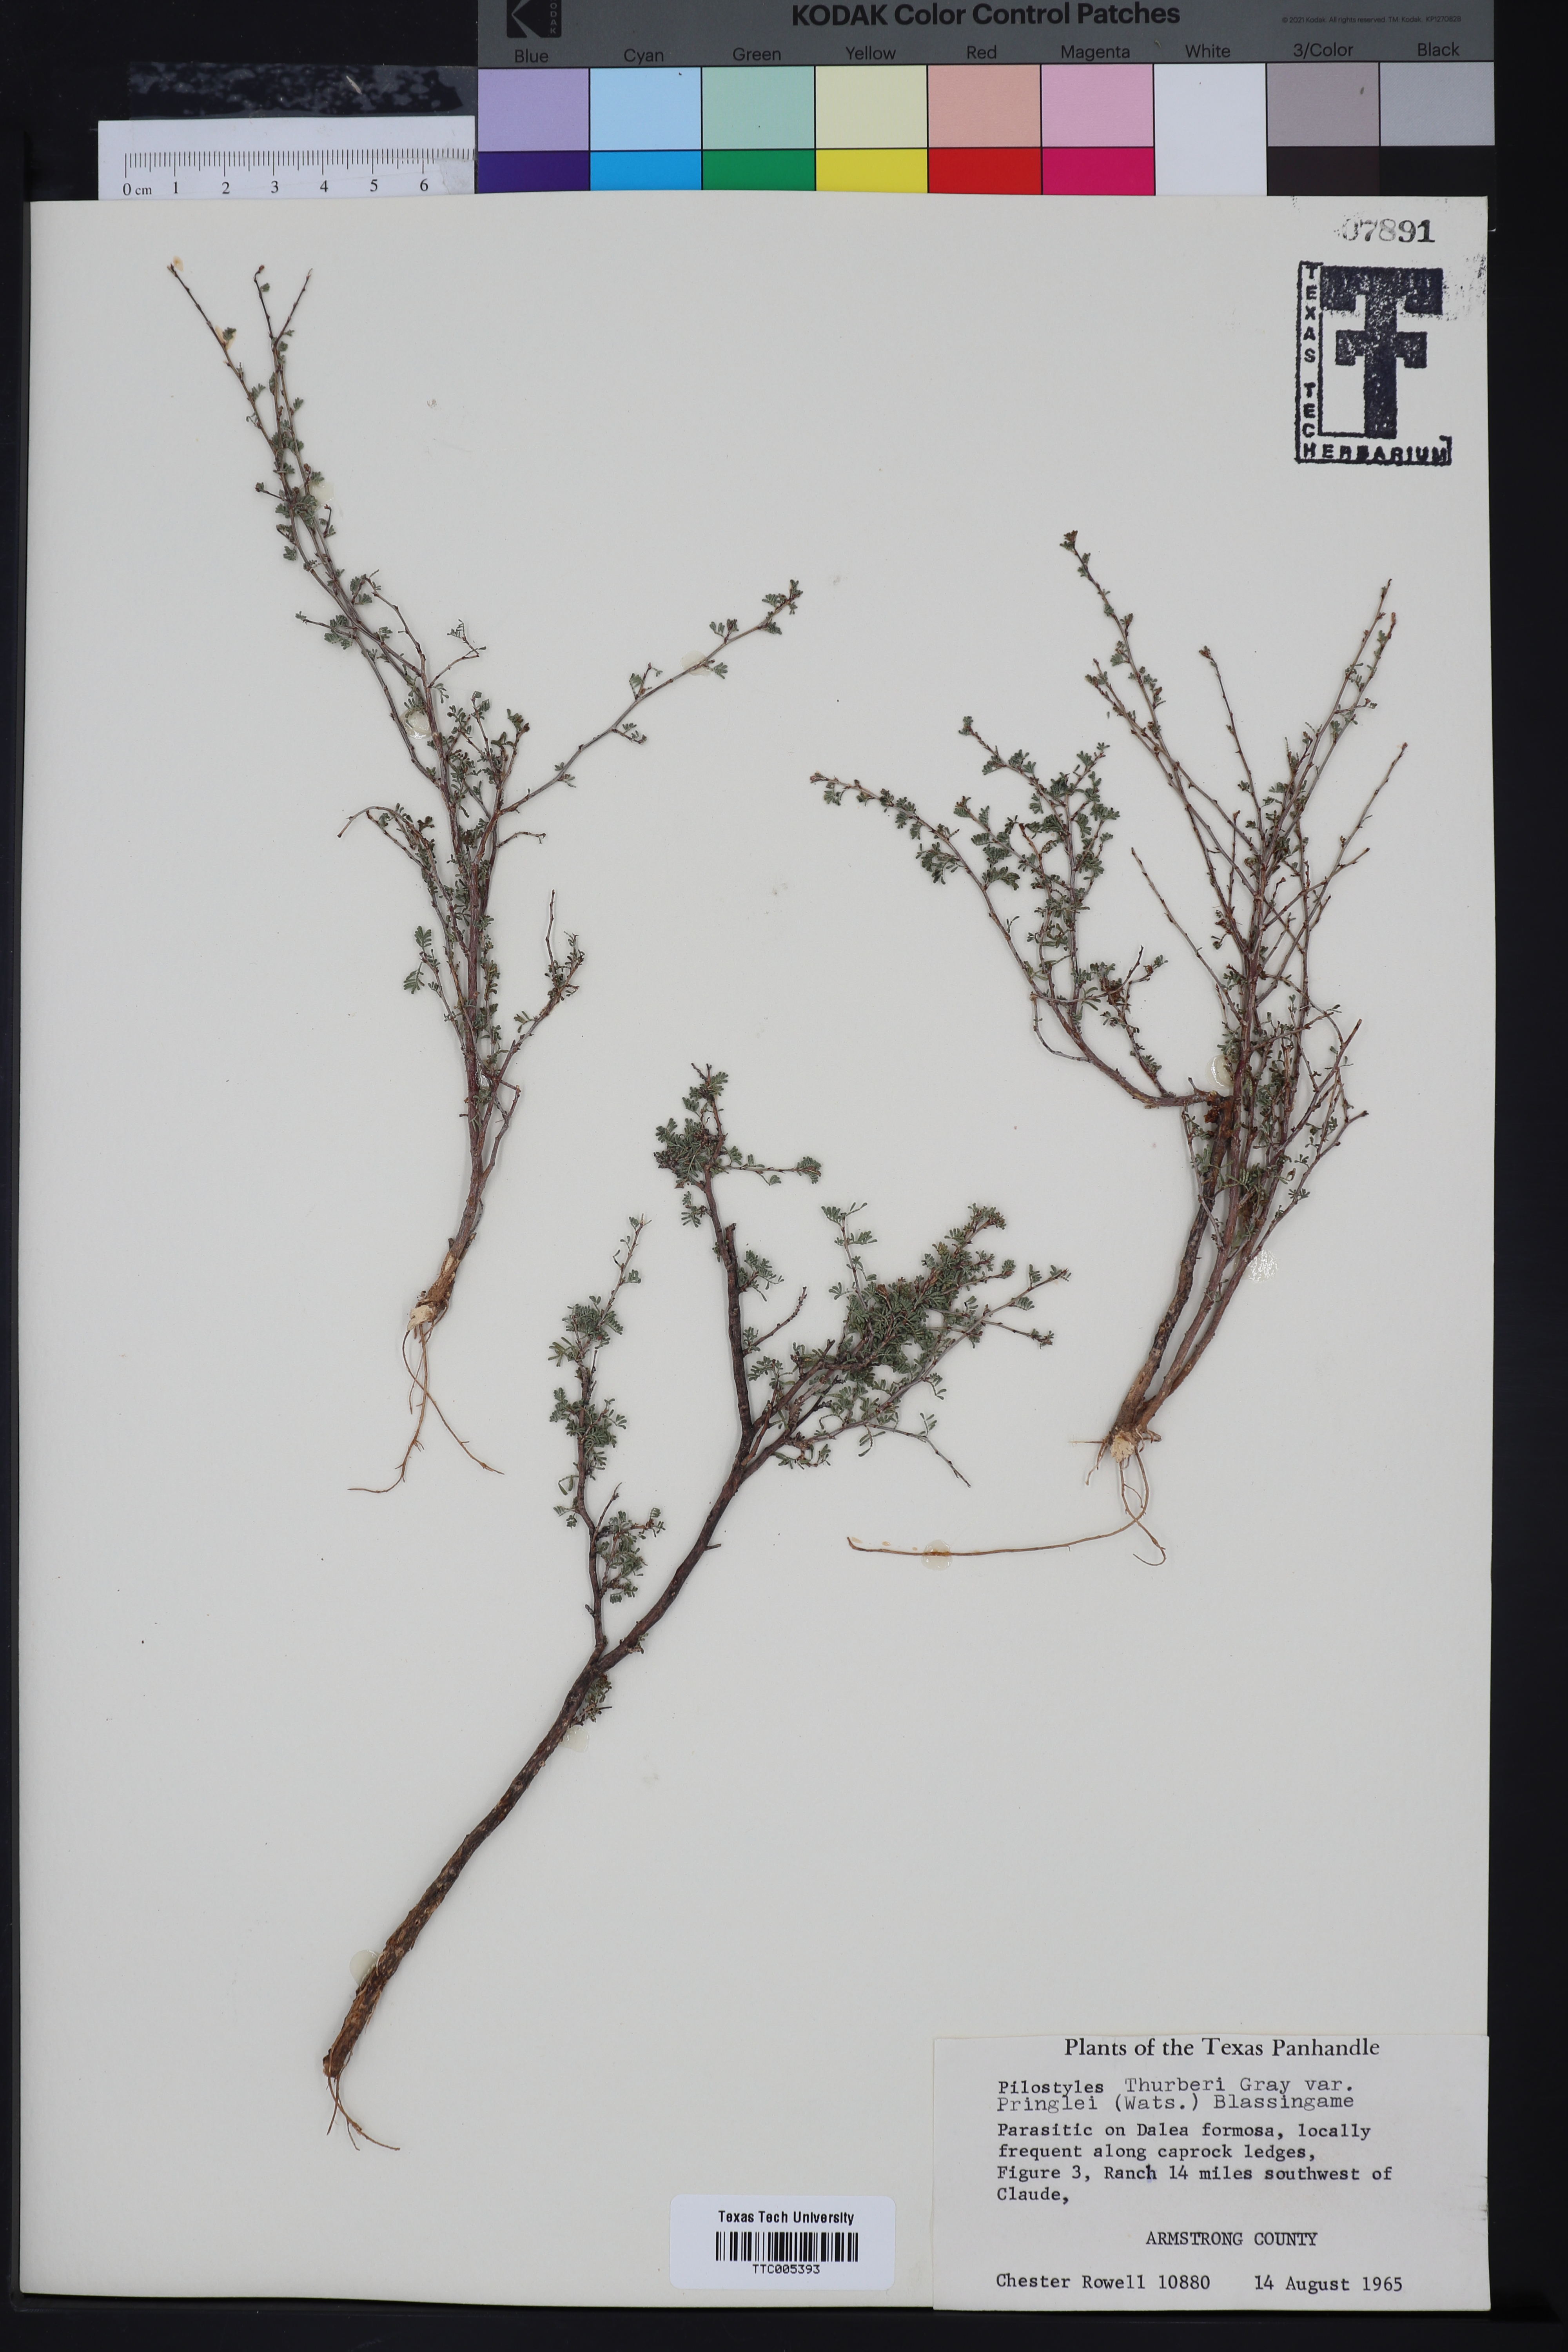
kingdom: Plantae
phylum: Tracheophyta
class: Magnoliopsida
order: Cucurbitales
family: Apodanthaceae
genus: Pilostyles
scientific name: Pilostyles thurberi
